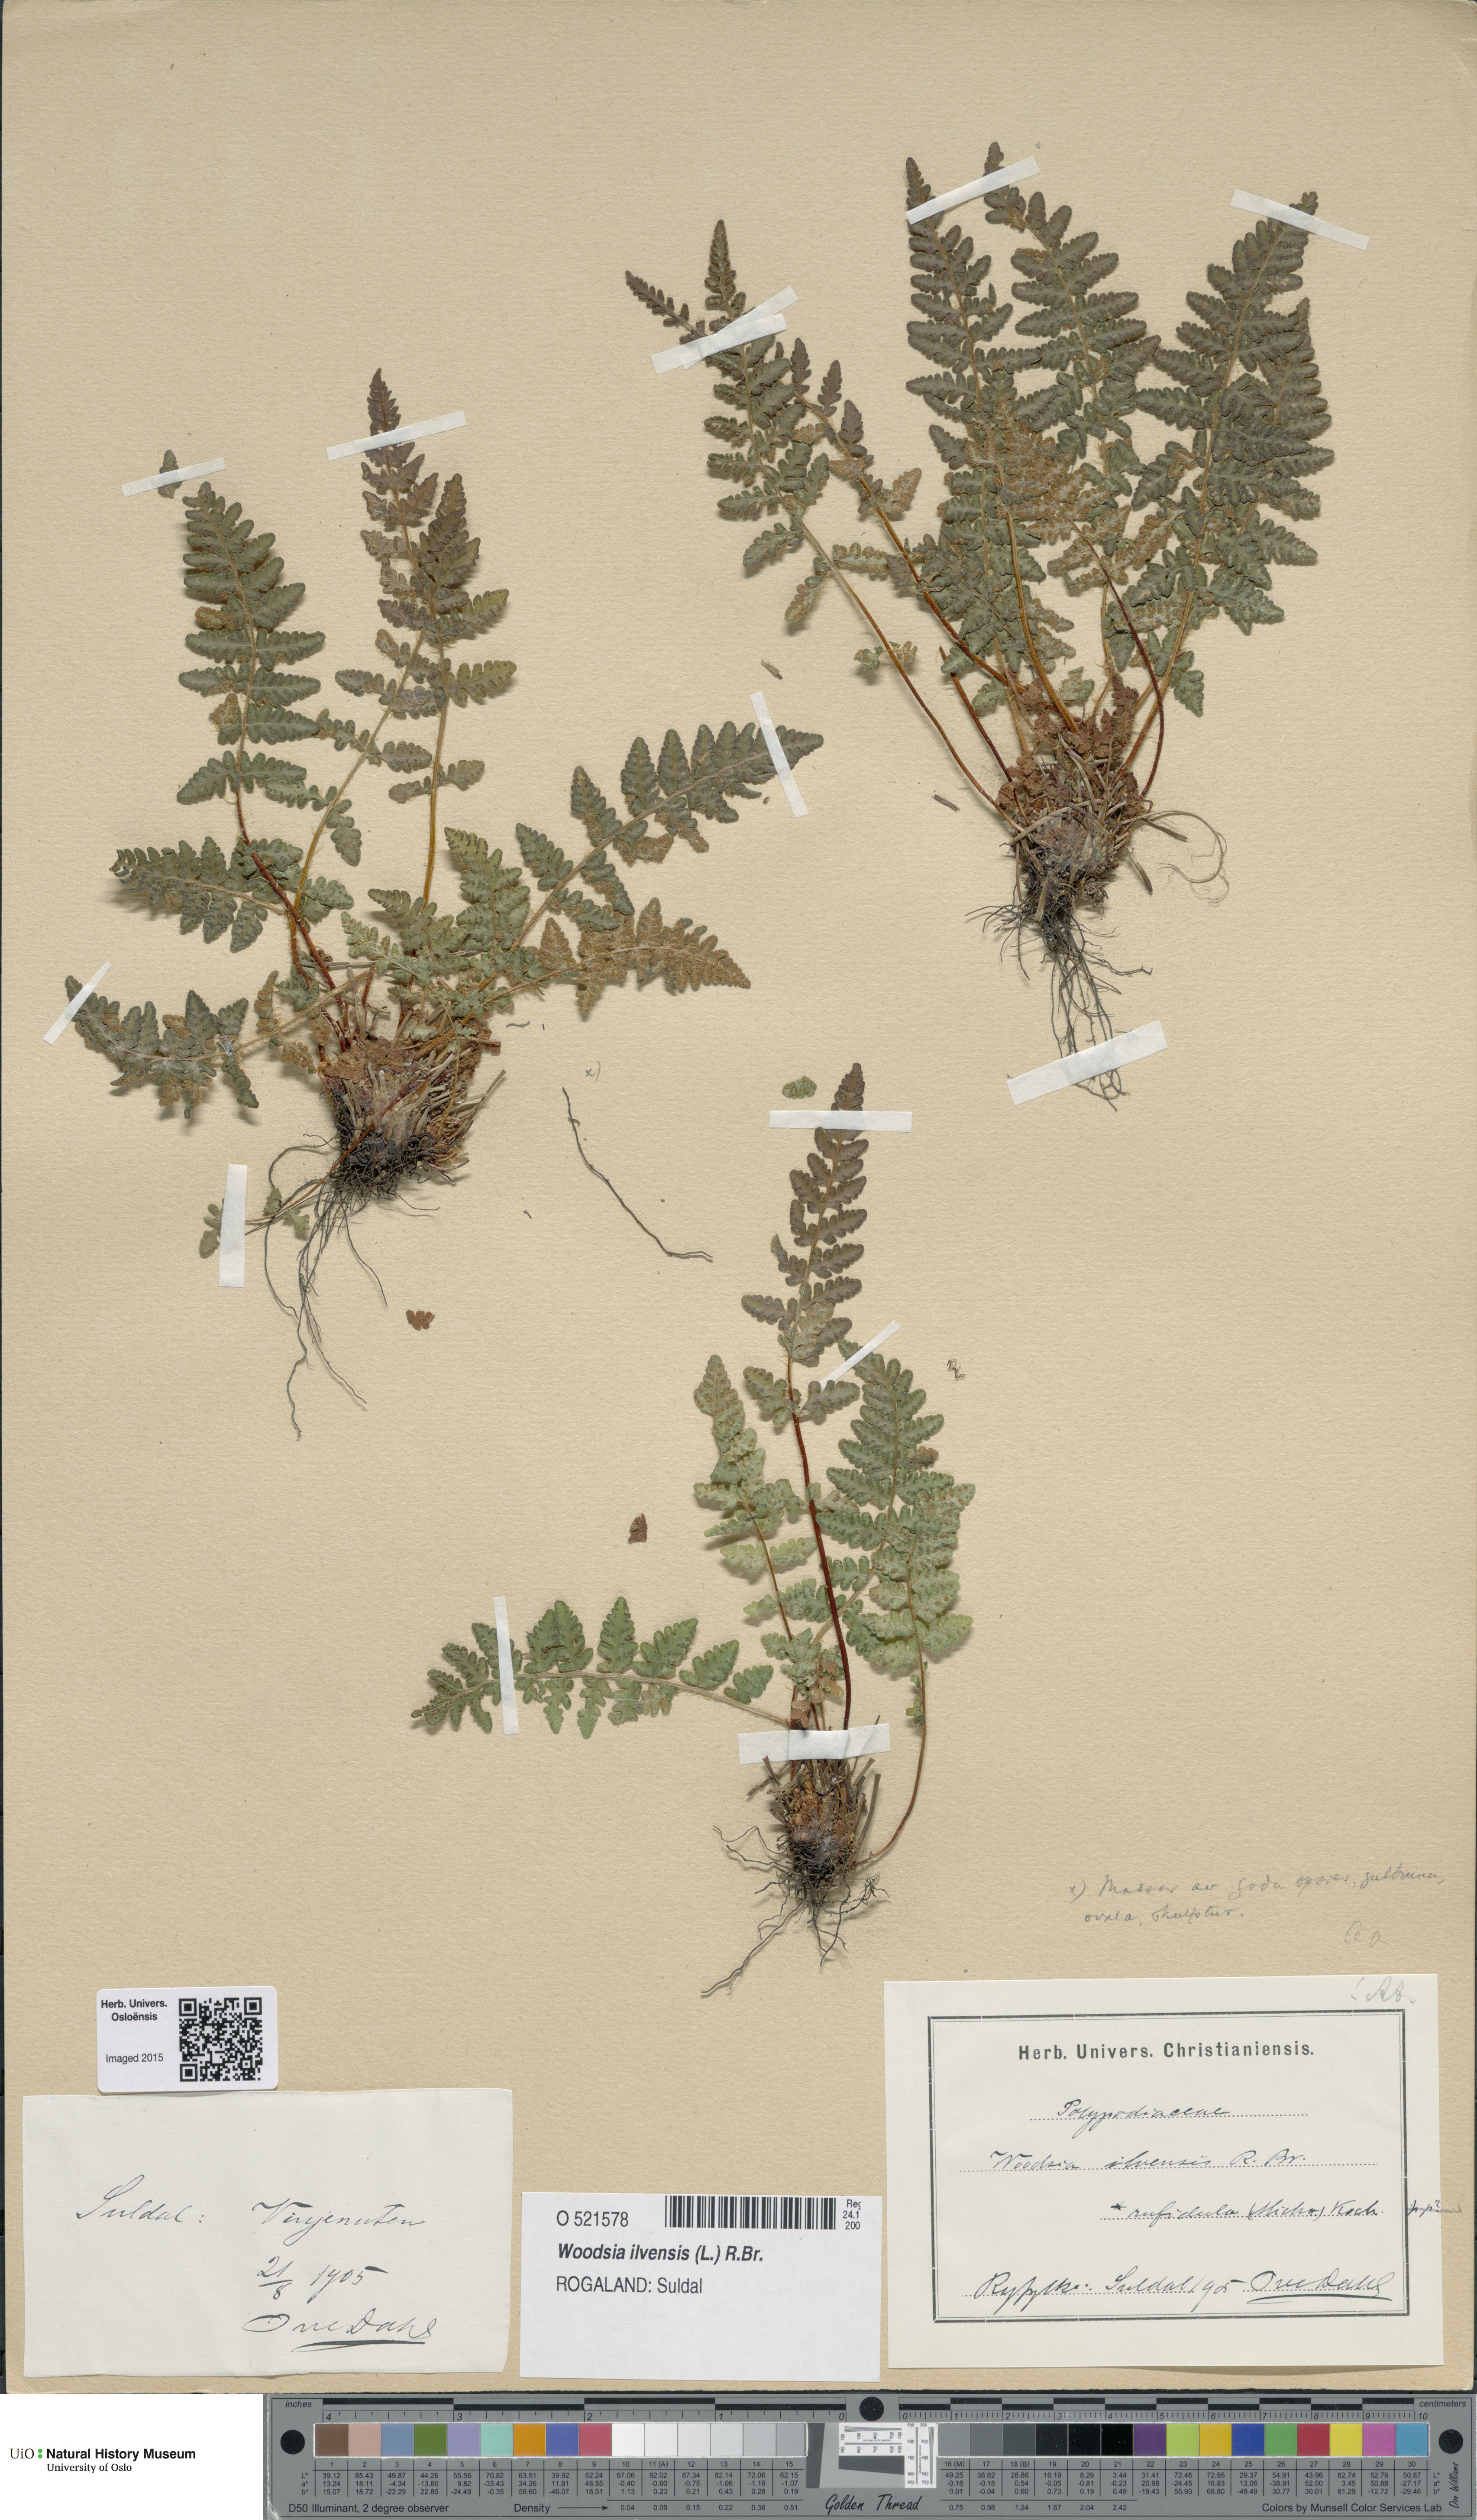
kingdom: Plantae
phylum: Tracheophyta
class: Polypodiopsida
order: Polypodiales
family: Woodsiaceae
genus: Woodsia
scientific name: Woodsia ilvensis
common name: Fragrant woodsia
